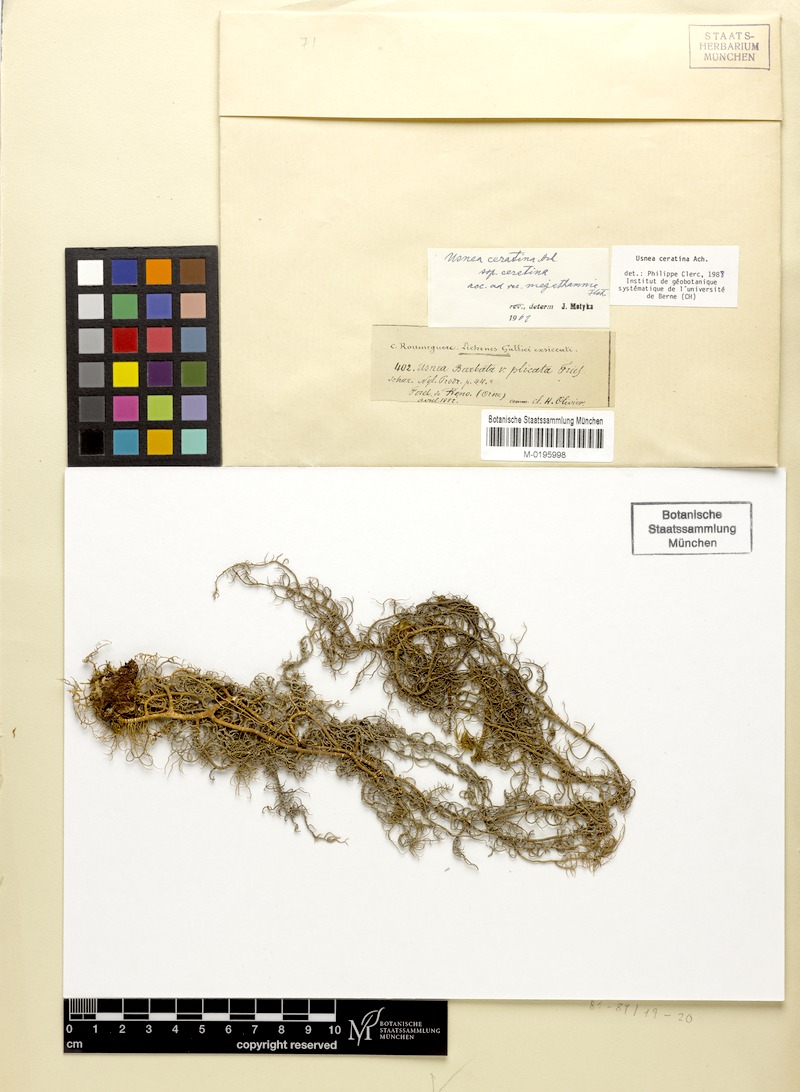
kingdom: Fungi
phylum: Ascomycota
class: Lecanoromycetes
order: Lecanorales
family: Parmeliaceae
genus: Usnea
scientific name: Usnea ceratina
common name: Warty beard lichen
